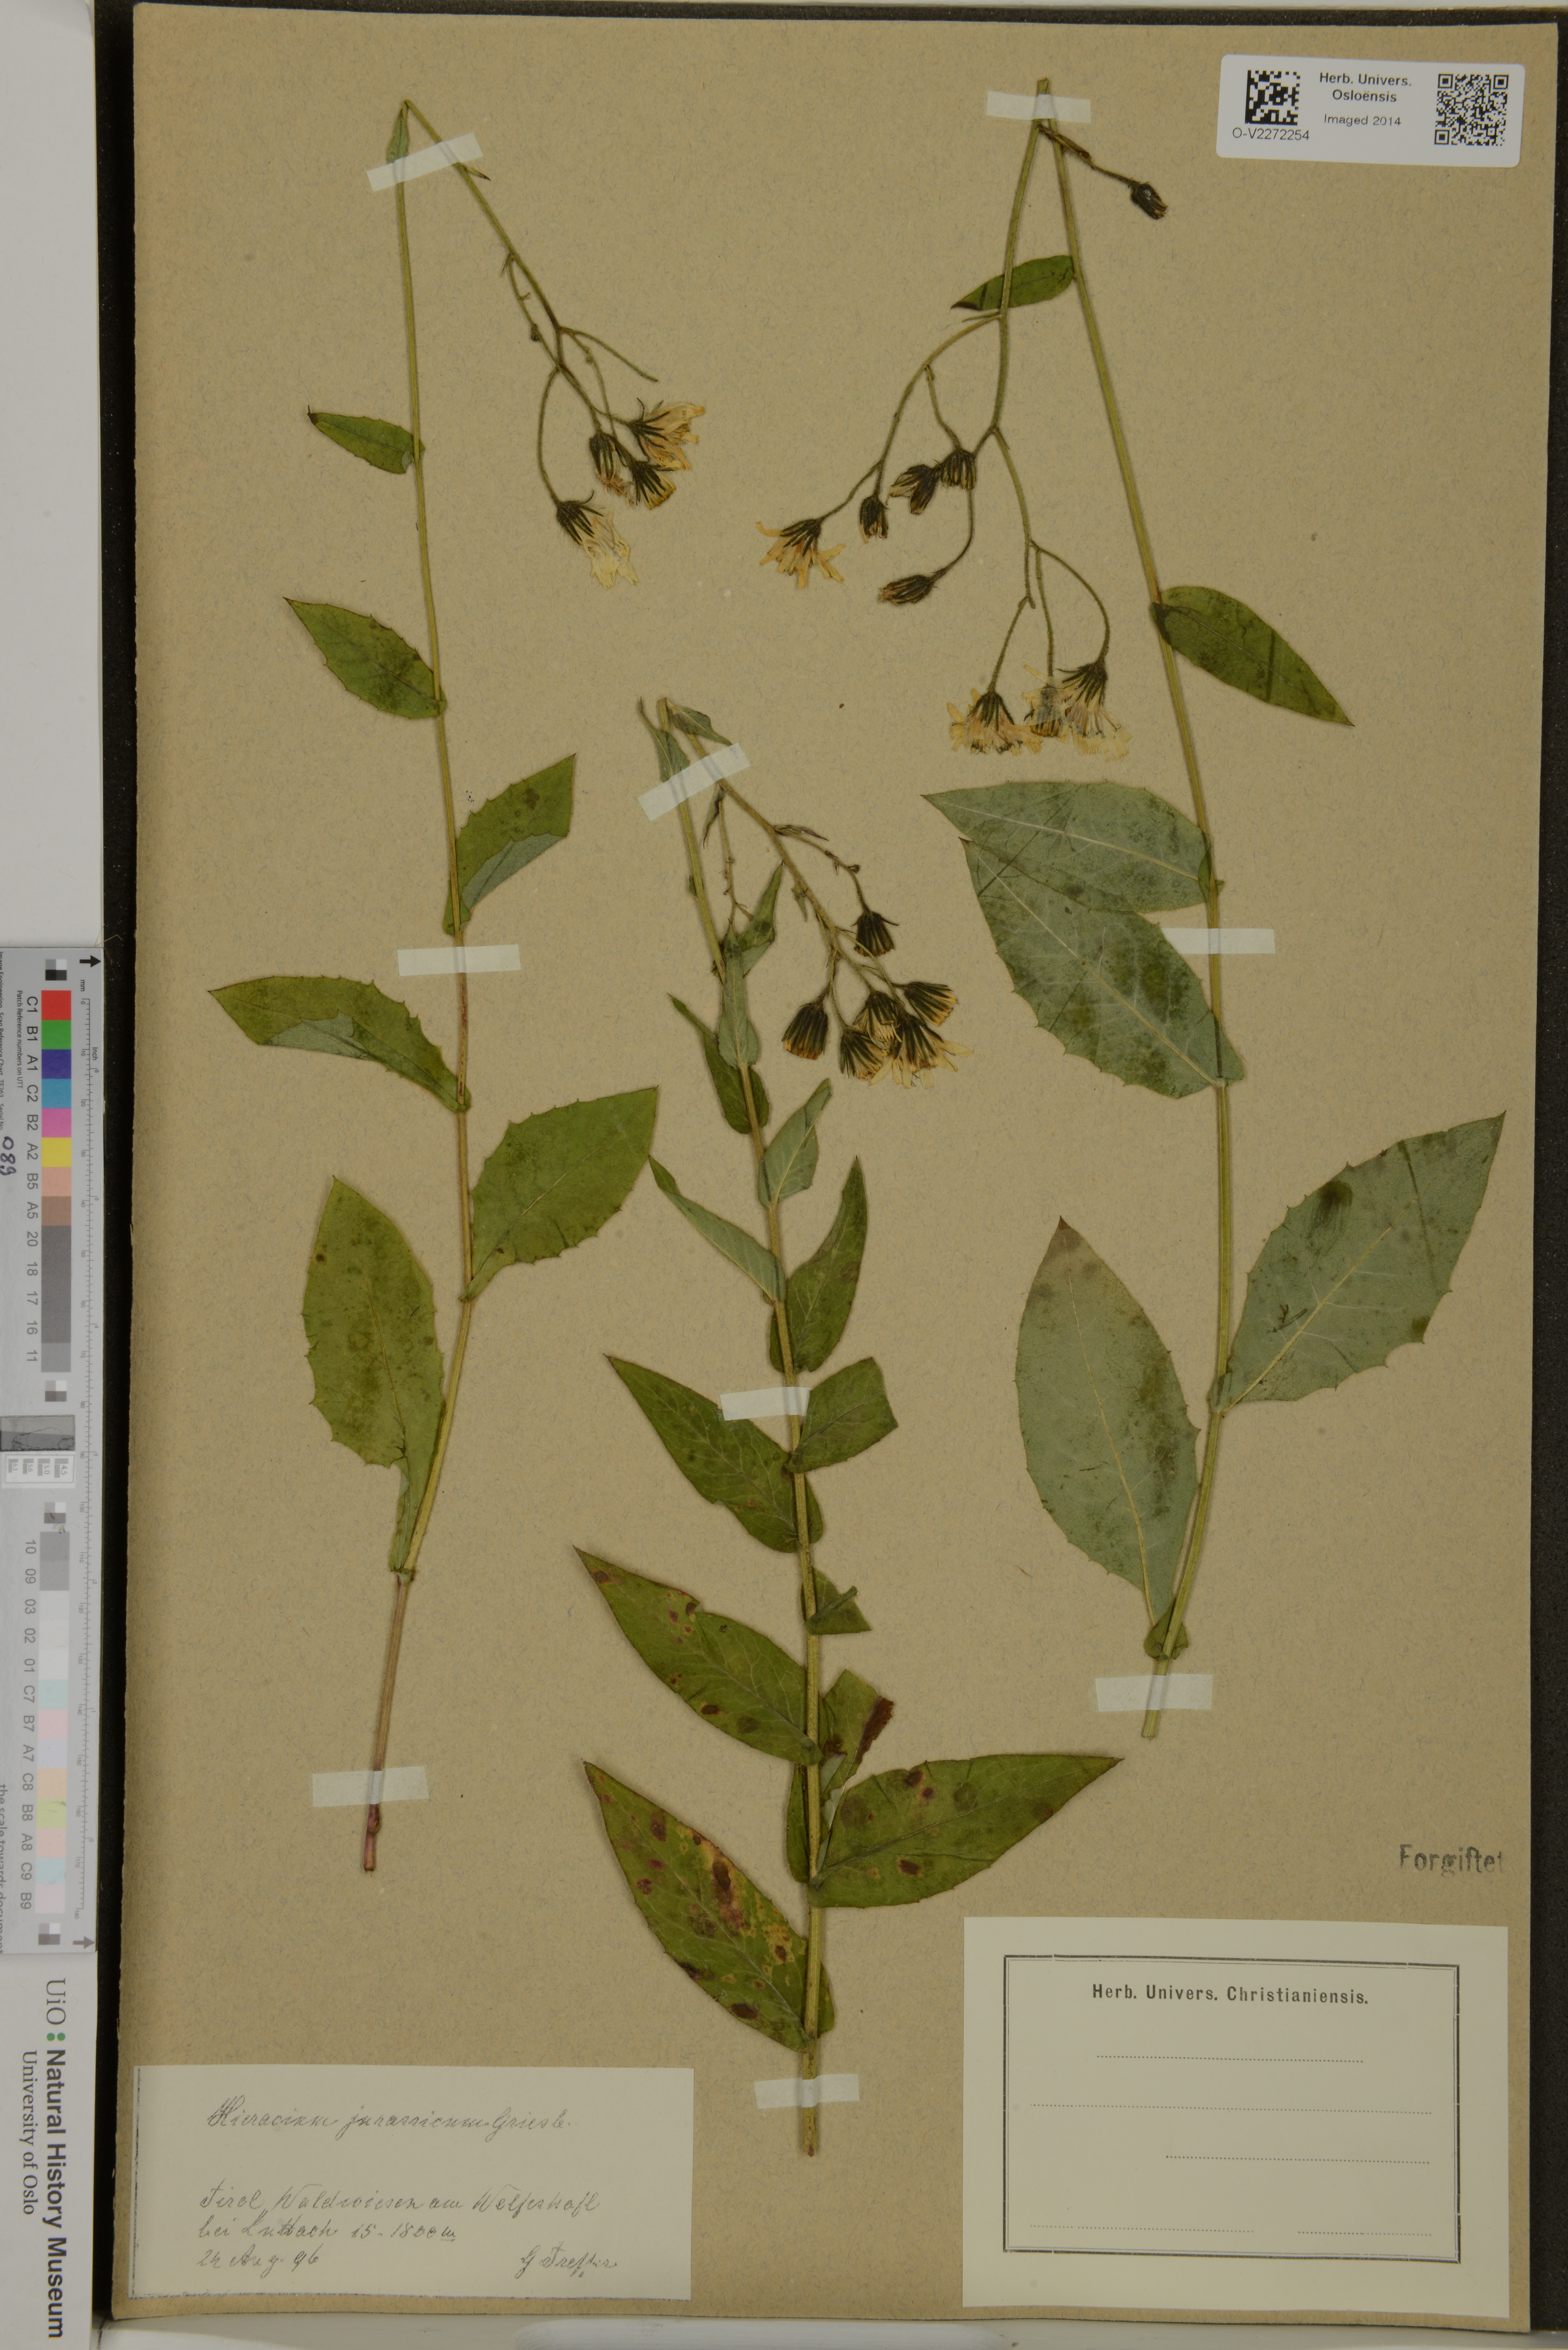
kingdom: Plantae
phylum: Tracheophyta
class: Magnoliopsida
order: Asterales
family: Asteraceae
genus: Hieracium
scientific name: Hieracium juranum
